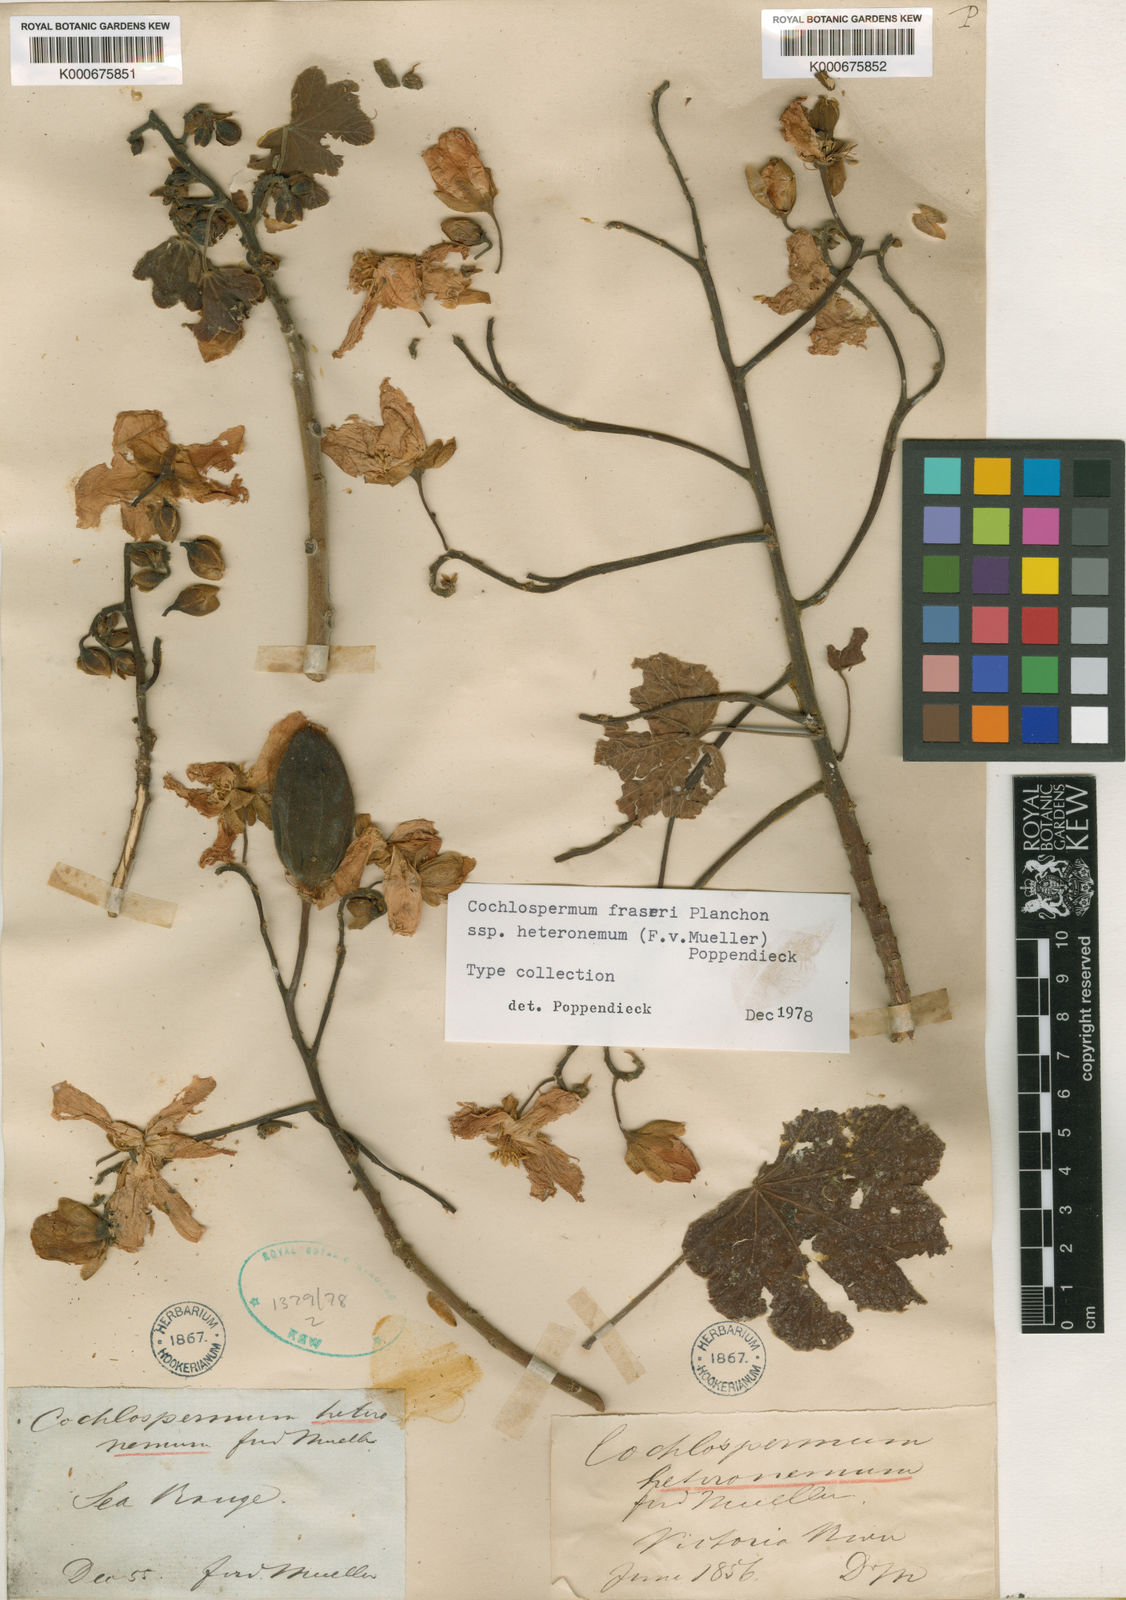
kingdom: Plantae
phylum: Tracheophyta
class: Magnoliopsida
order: Malvales
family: Cochlospermaceae
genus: Cochlospermum
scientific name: Cochlospermum fraseri
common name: Kapokbush
